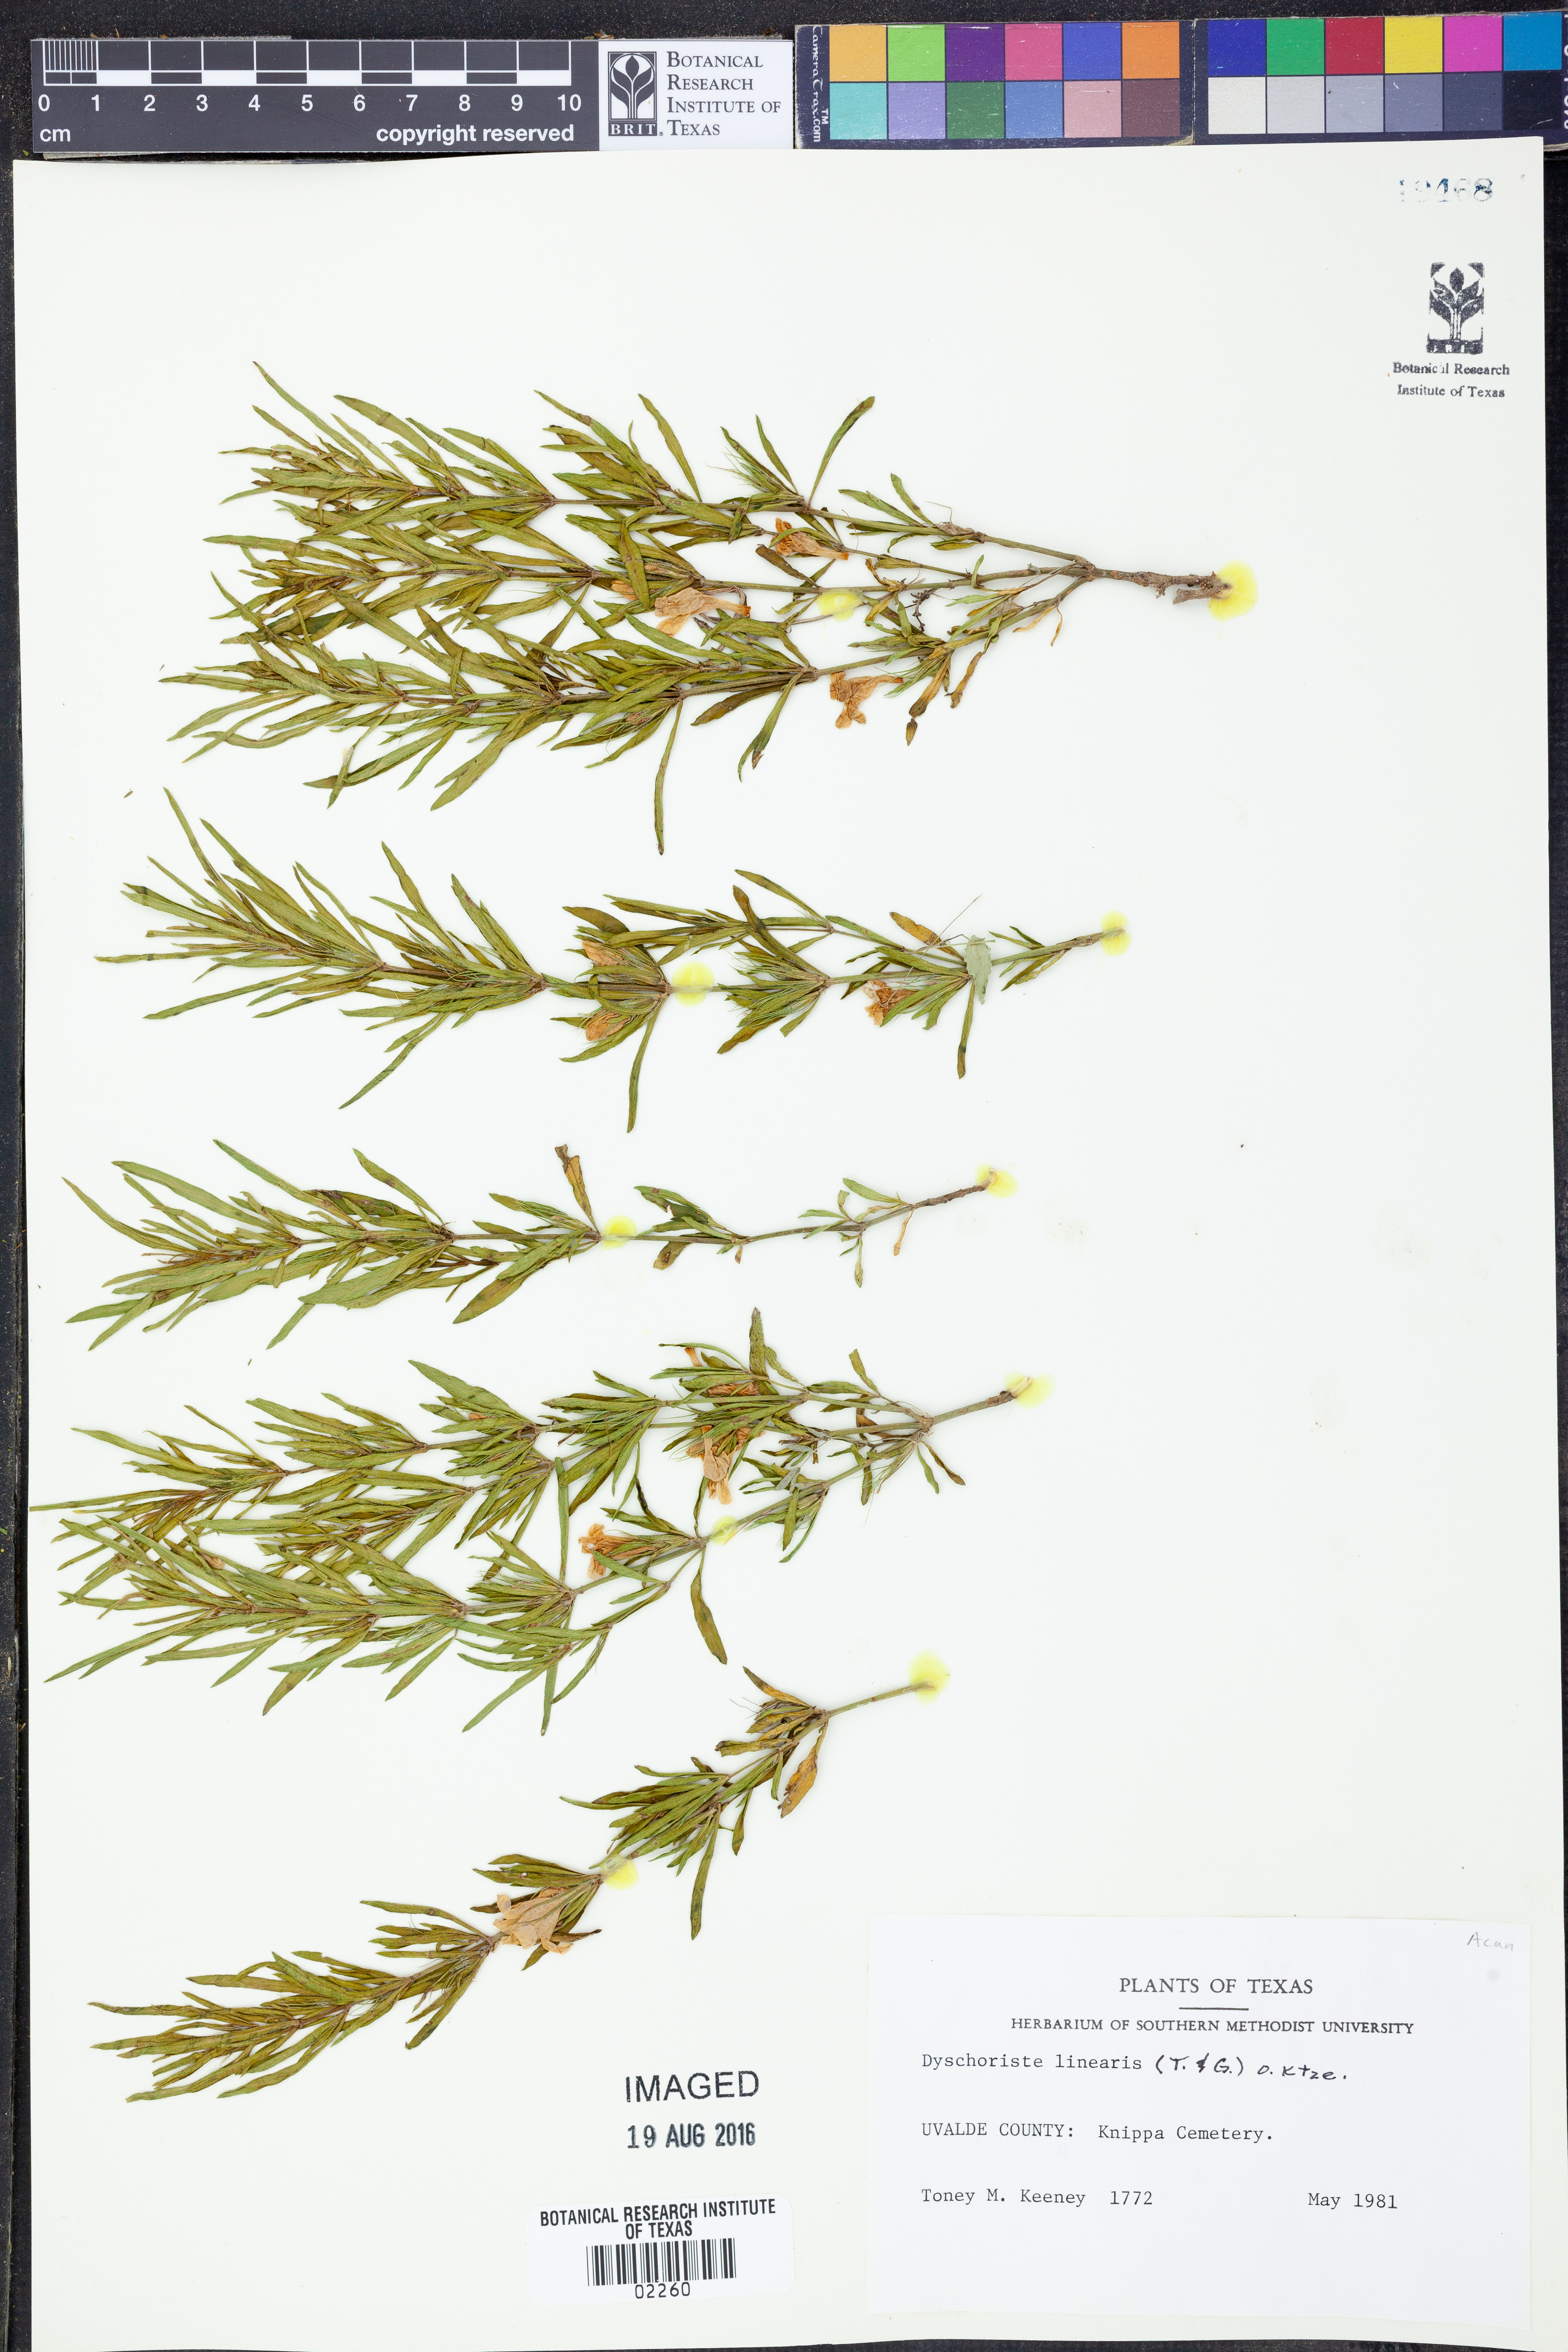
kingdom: Plantae
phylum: Tracheophyta
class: Magnoliopsida
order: Lamiales
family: Acanthaceae
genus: Dyschoriste
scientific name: Dyschoriste linearis
